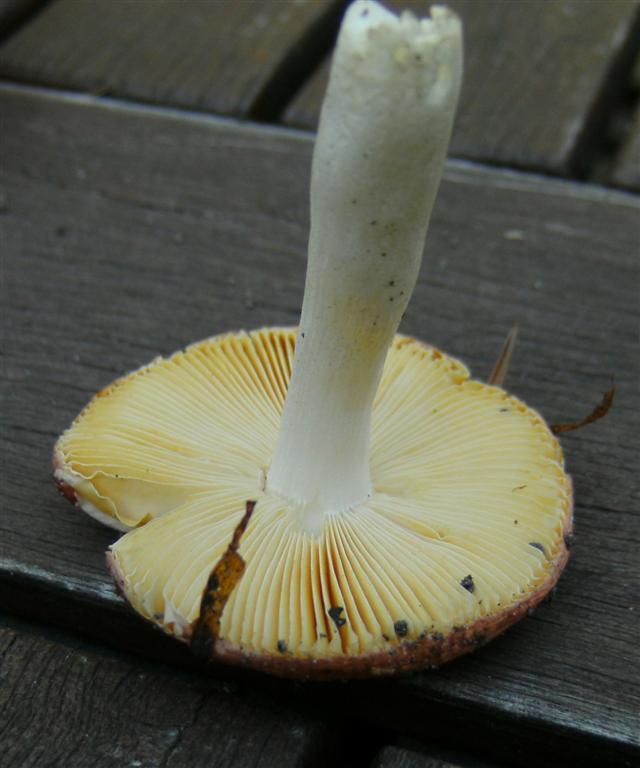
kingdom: Fungi
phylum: Basidiomycota
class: Agaricomycetes
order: Russulales
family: Russulaceae
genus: Russula
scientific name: Russula risigallina
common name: abrikos-skørhat
